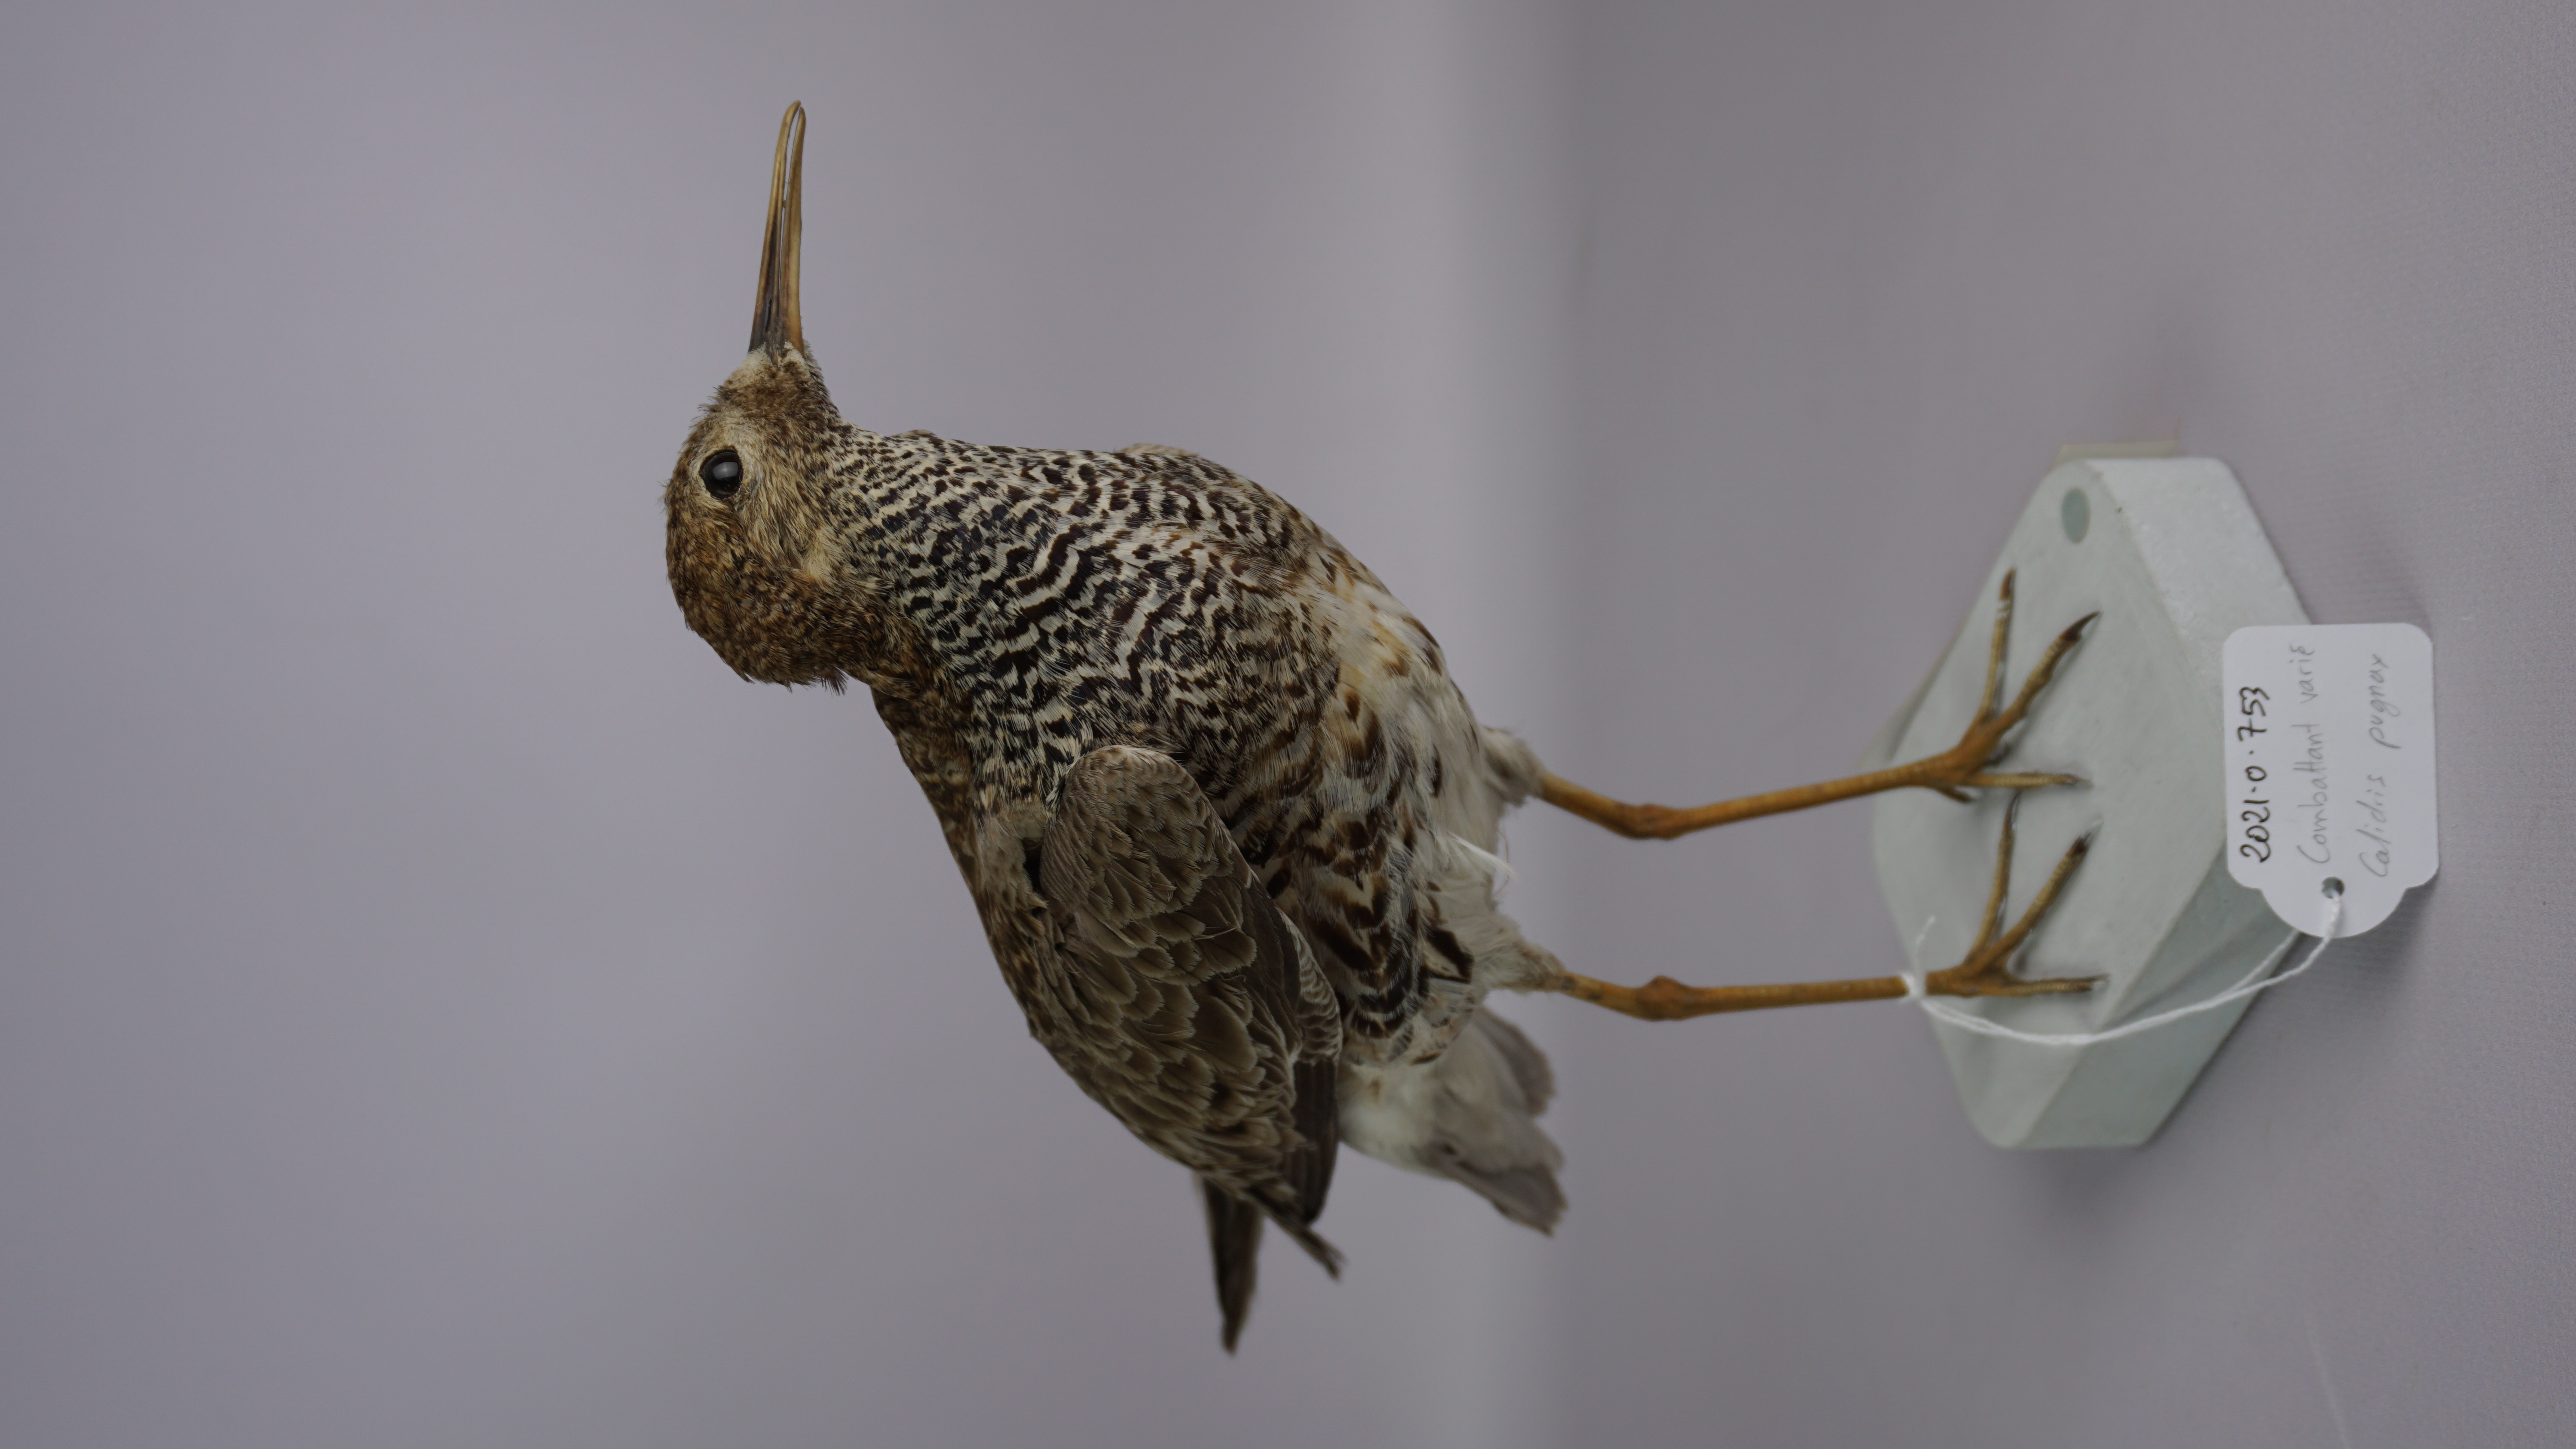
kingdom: Animalia
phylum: Chordata
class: Aves
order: Charadriiformes
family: Scolopacidae
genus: Calidris
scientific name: Calidris pugnax
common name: Ruff
